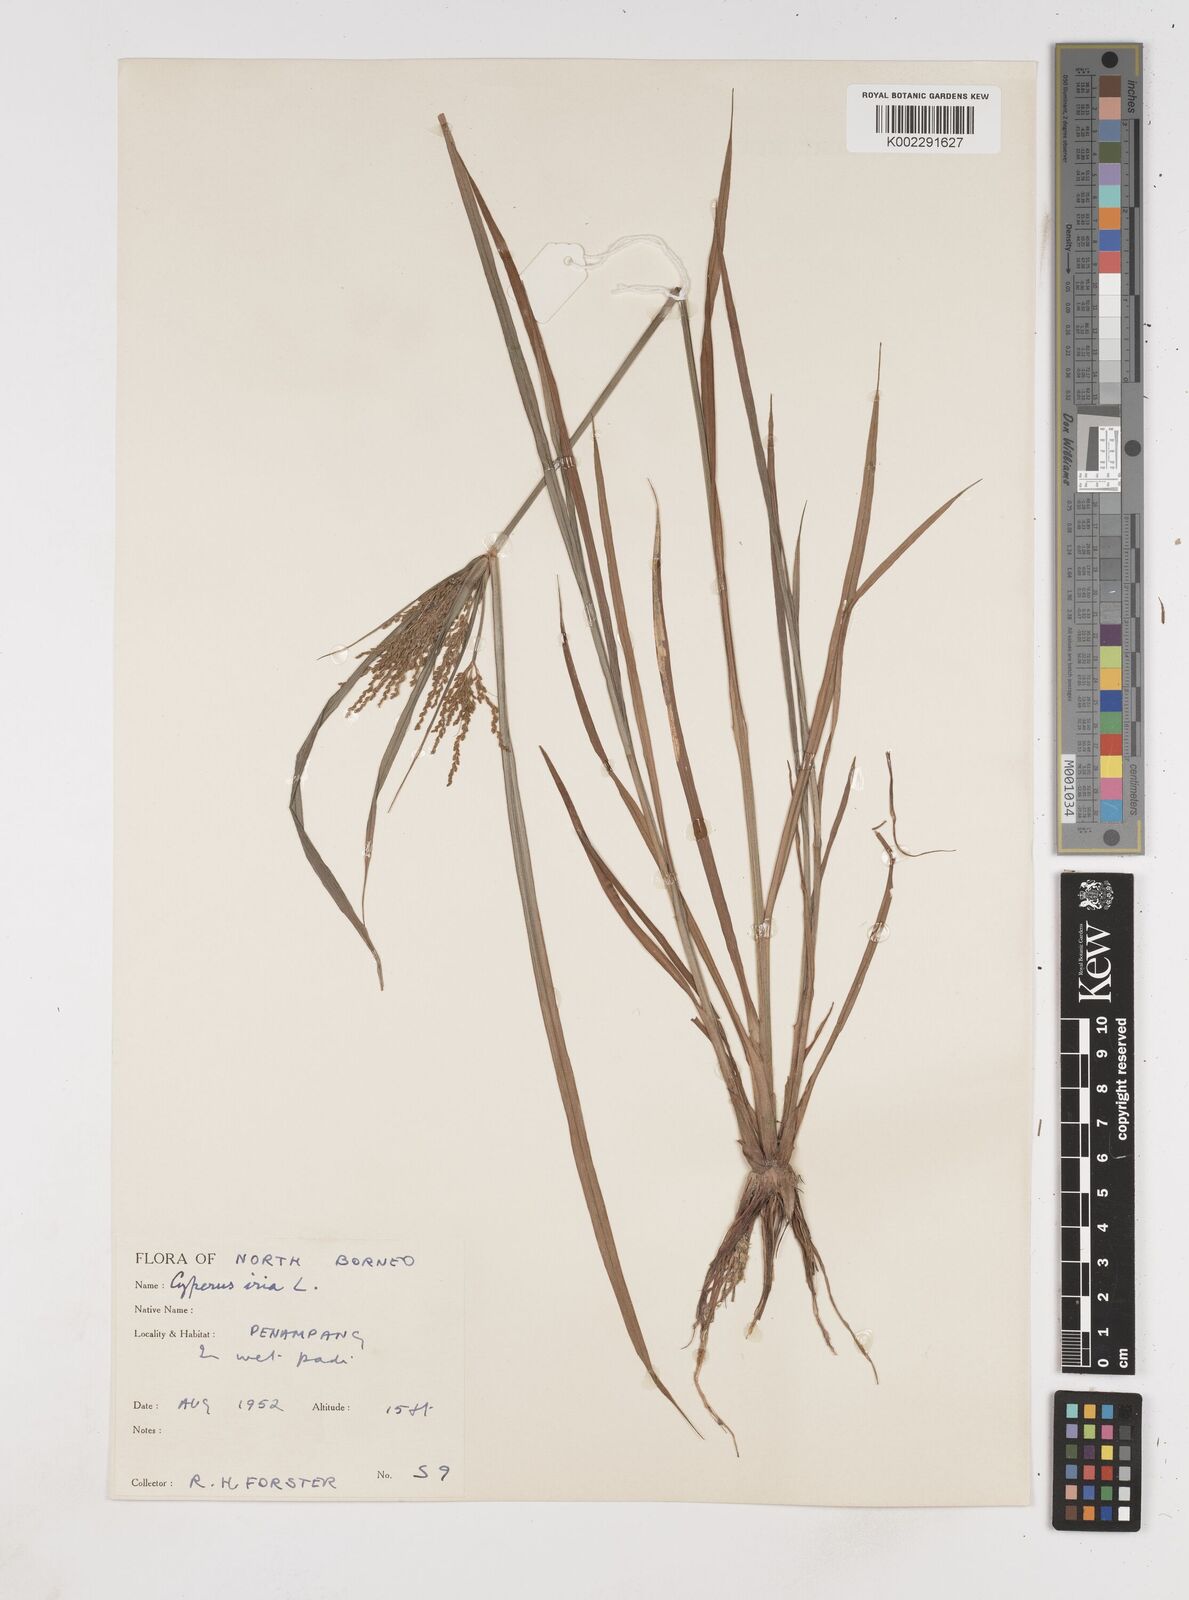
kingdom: Plantae
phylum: Tracheophyta
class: Liliopsida
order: Poales
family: Cyperaceae
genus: Cyperus
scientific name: Cyperus iria
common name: Ricefield flatsedge
